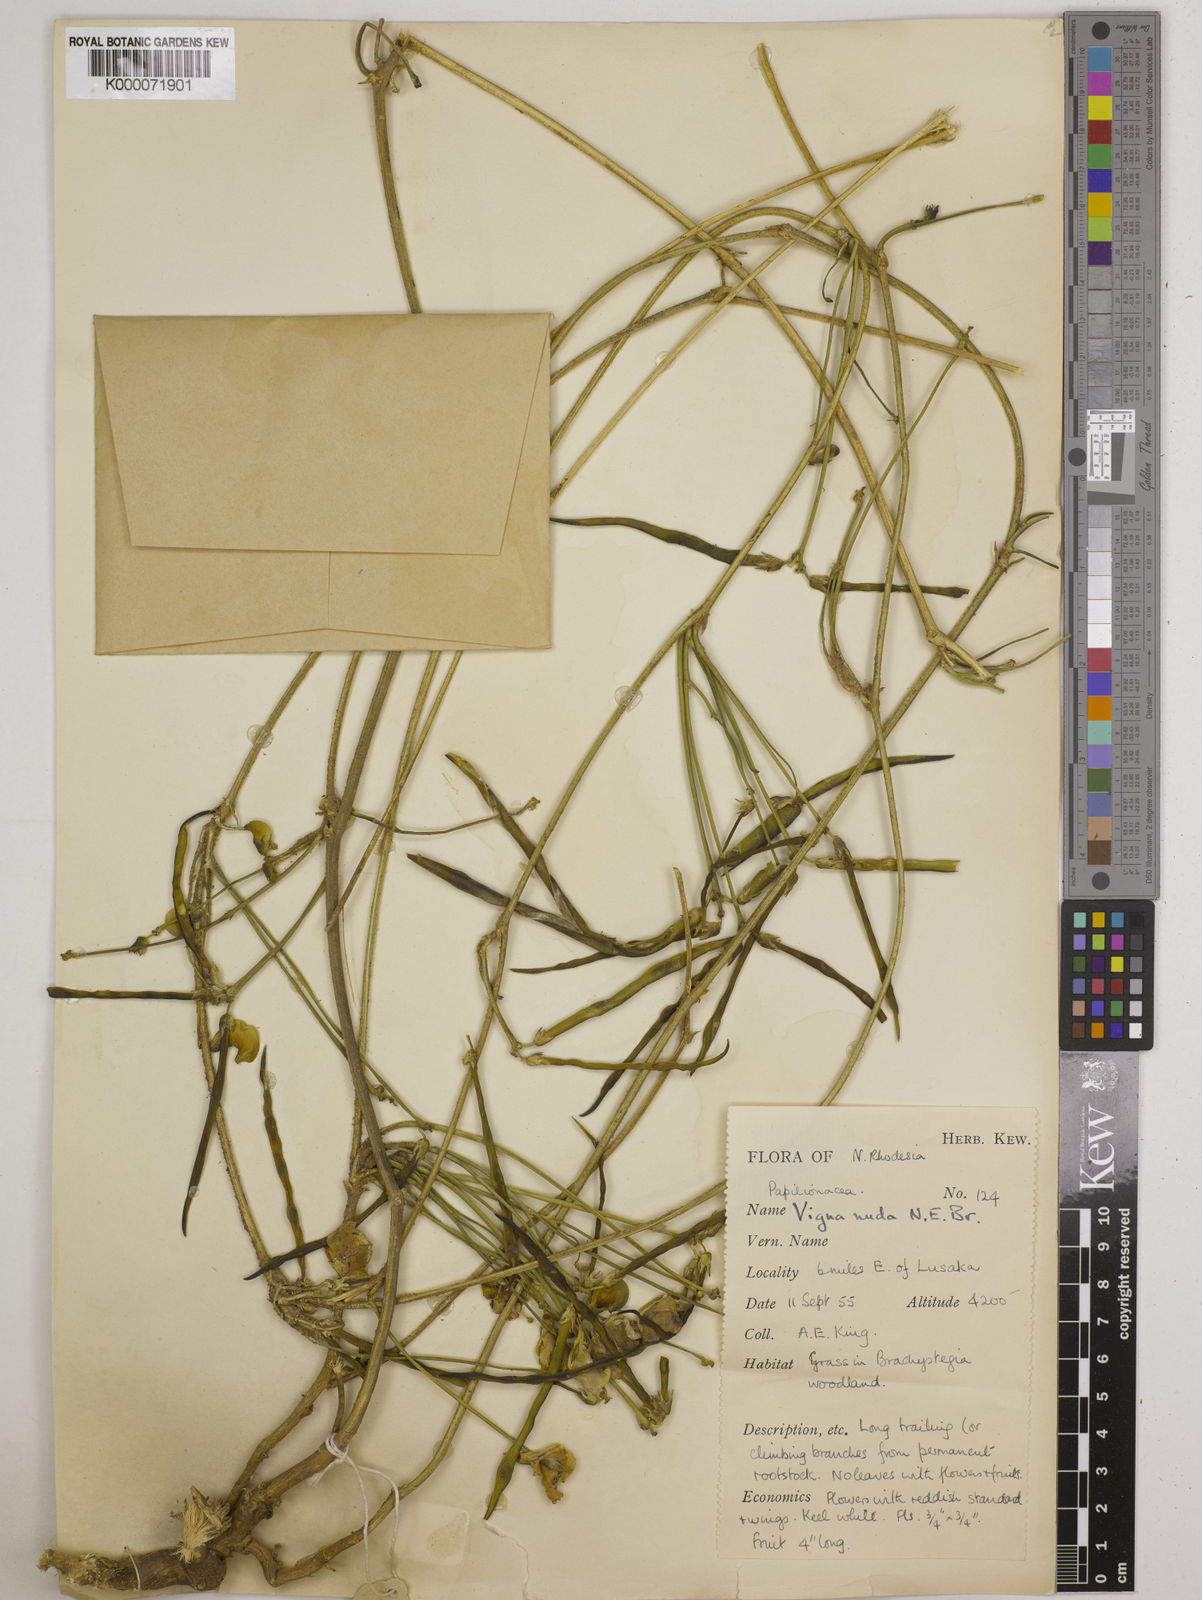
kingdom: Plantae
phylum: Tracheophyta
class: Magnoliopsida
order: Fabales
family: Fabaceae
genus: Vigna
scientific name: Vigna antunesii
